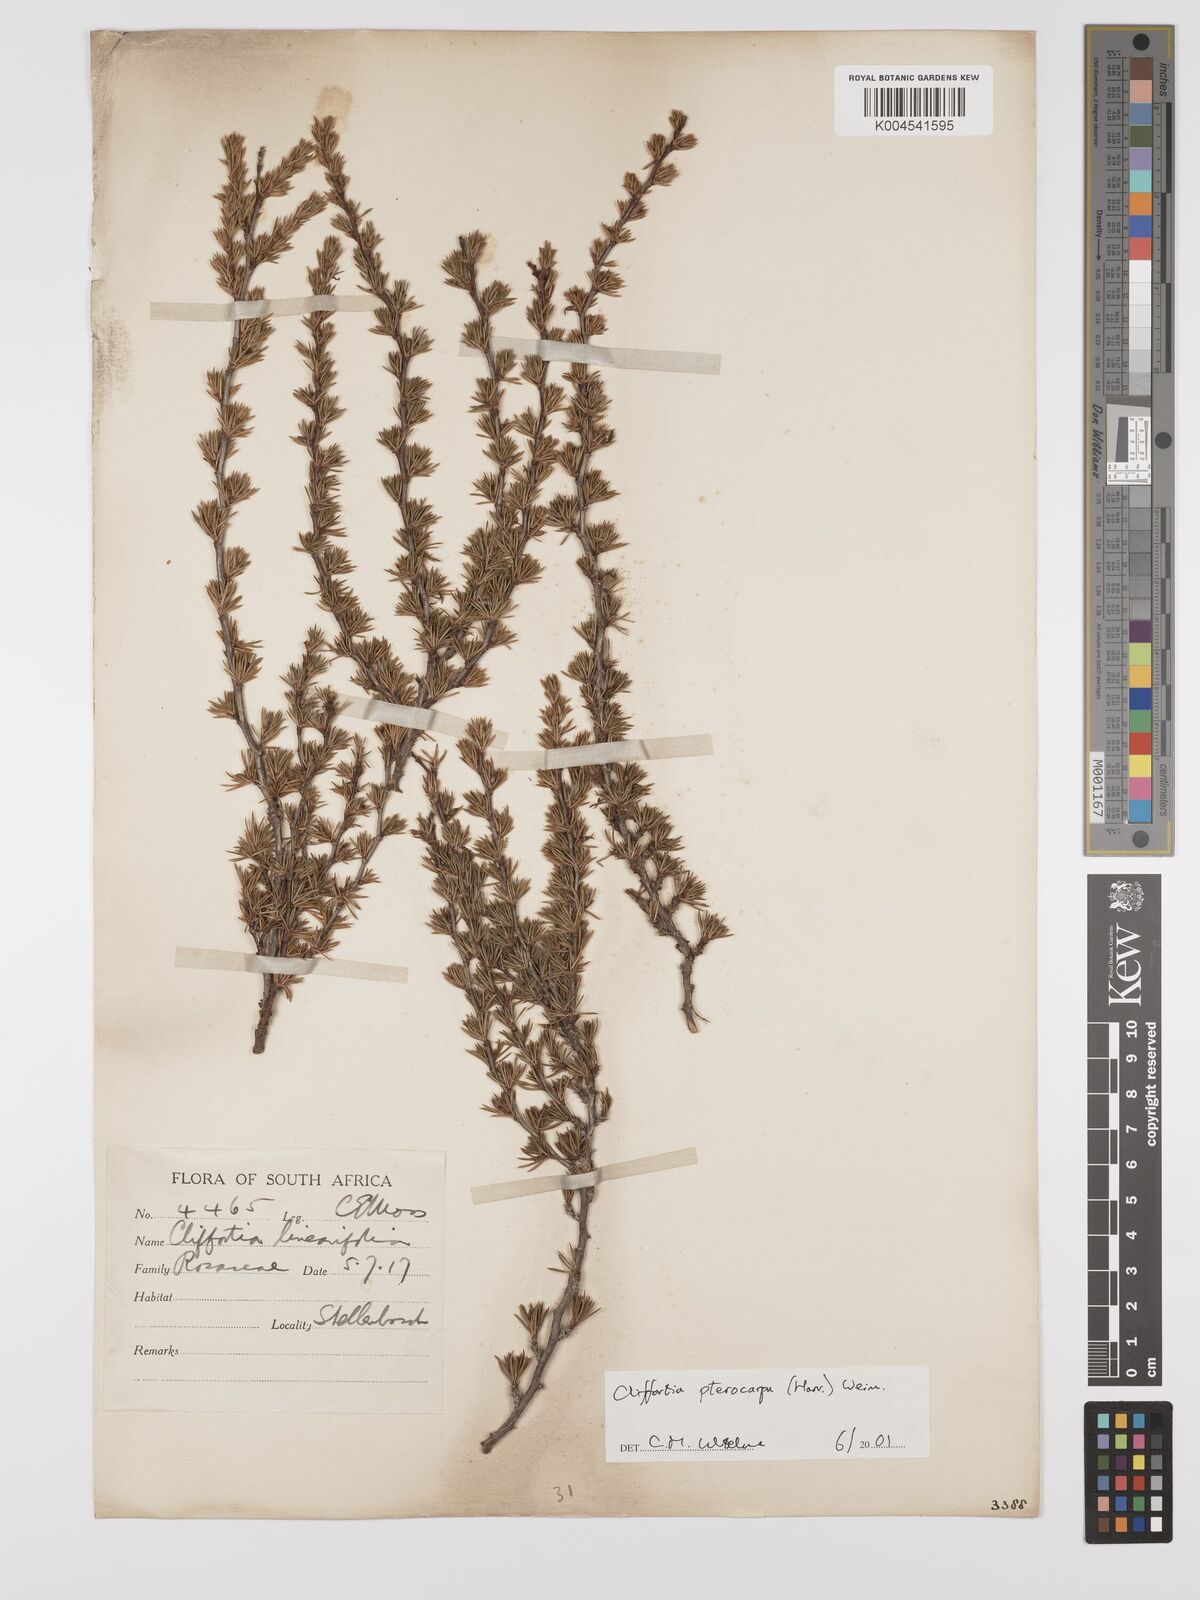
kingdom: Plantae
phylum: Tracheophyta
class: Magnoliopsida
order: Rosales
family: Rosaceae
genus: Cliffortia
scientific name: Cliffortia pterocarpa
